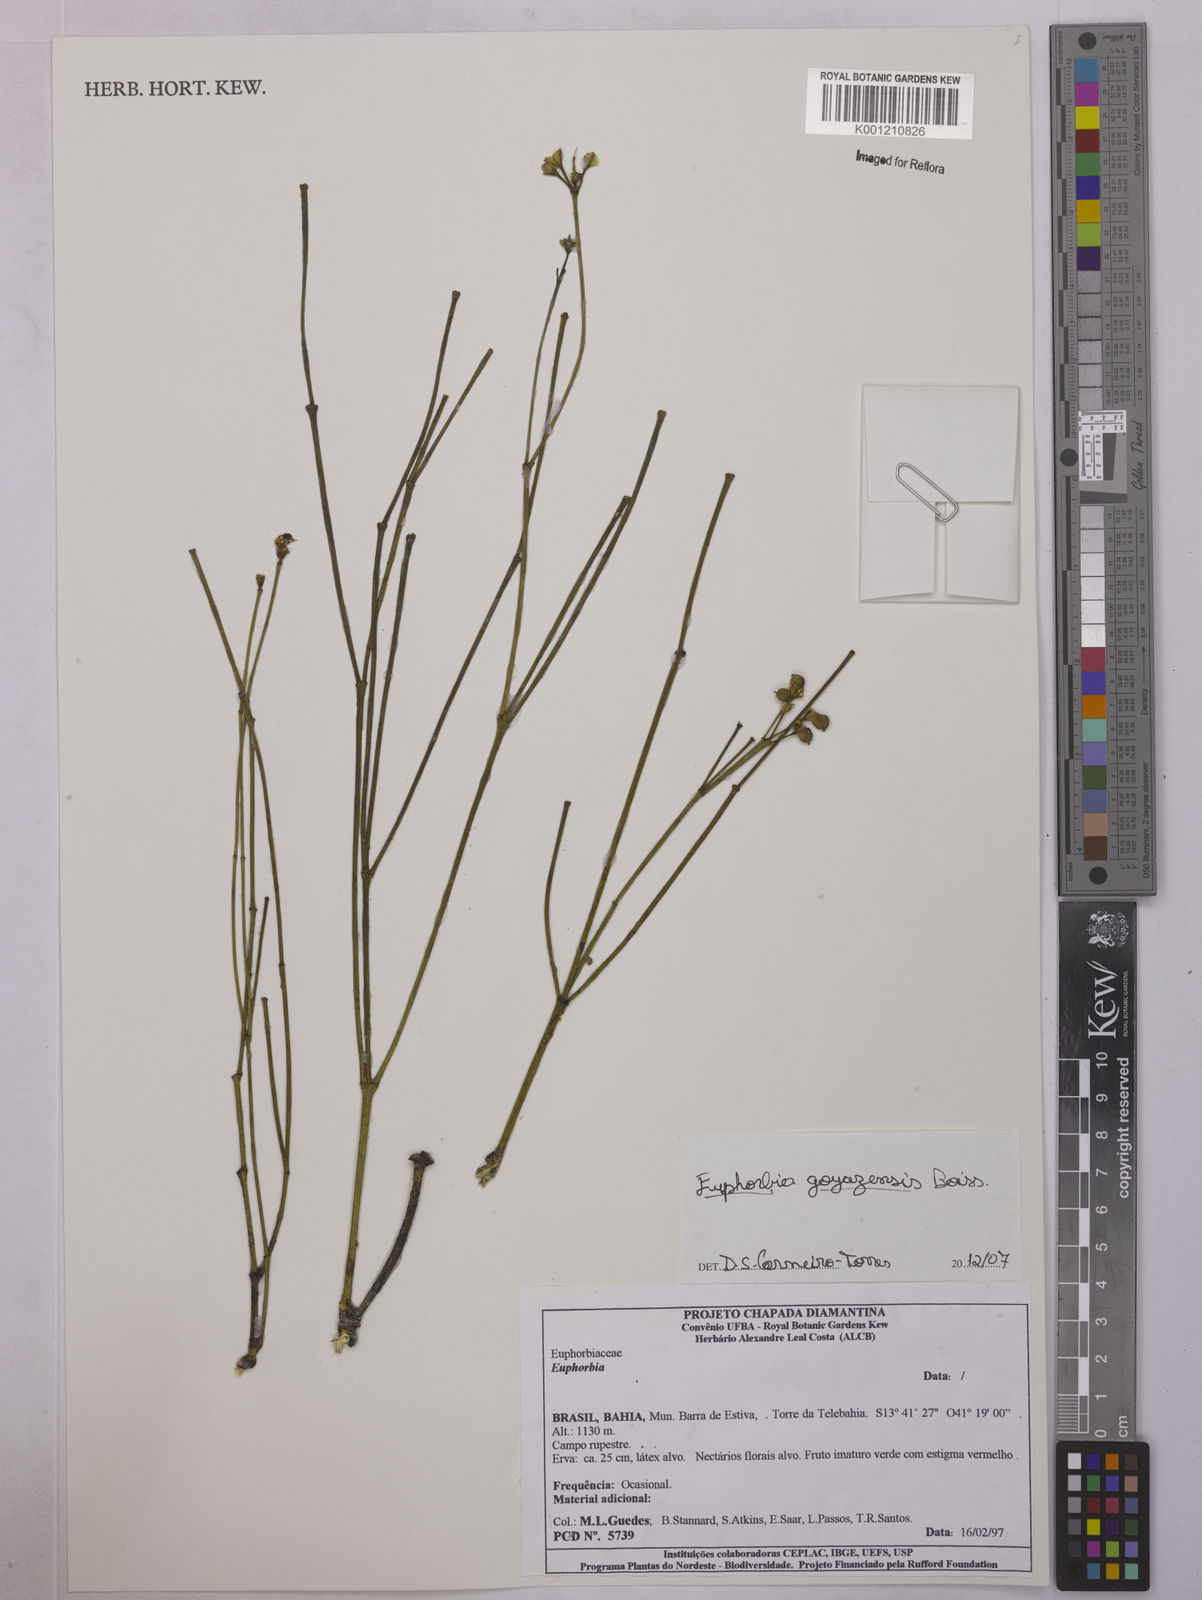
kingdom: Plantae
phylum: Tracheophyta
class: Magnoliopsida
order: Malpighiales
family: Euphorbiaceae
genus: Euphorbia
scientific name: Euphorbia goyazensis
